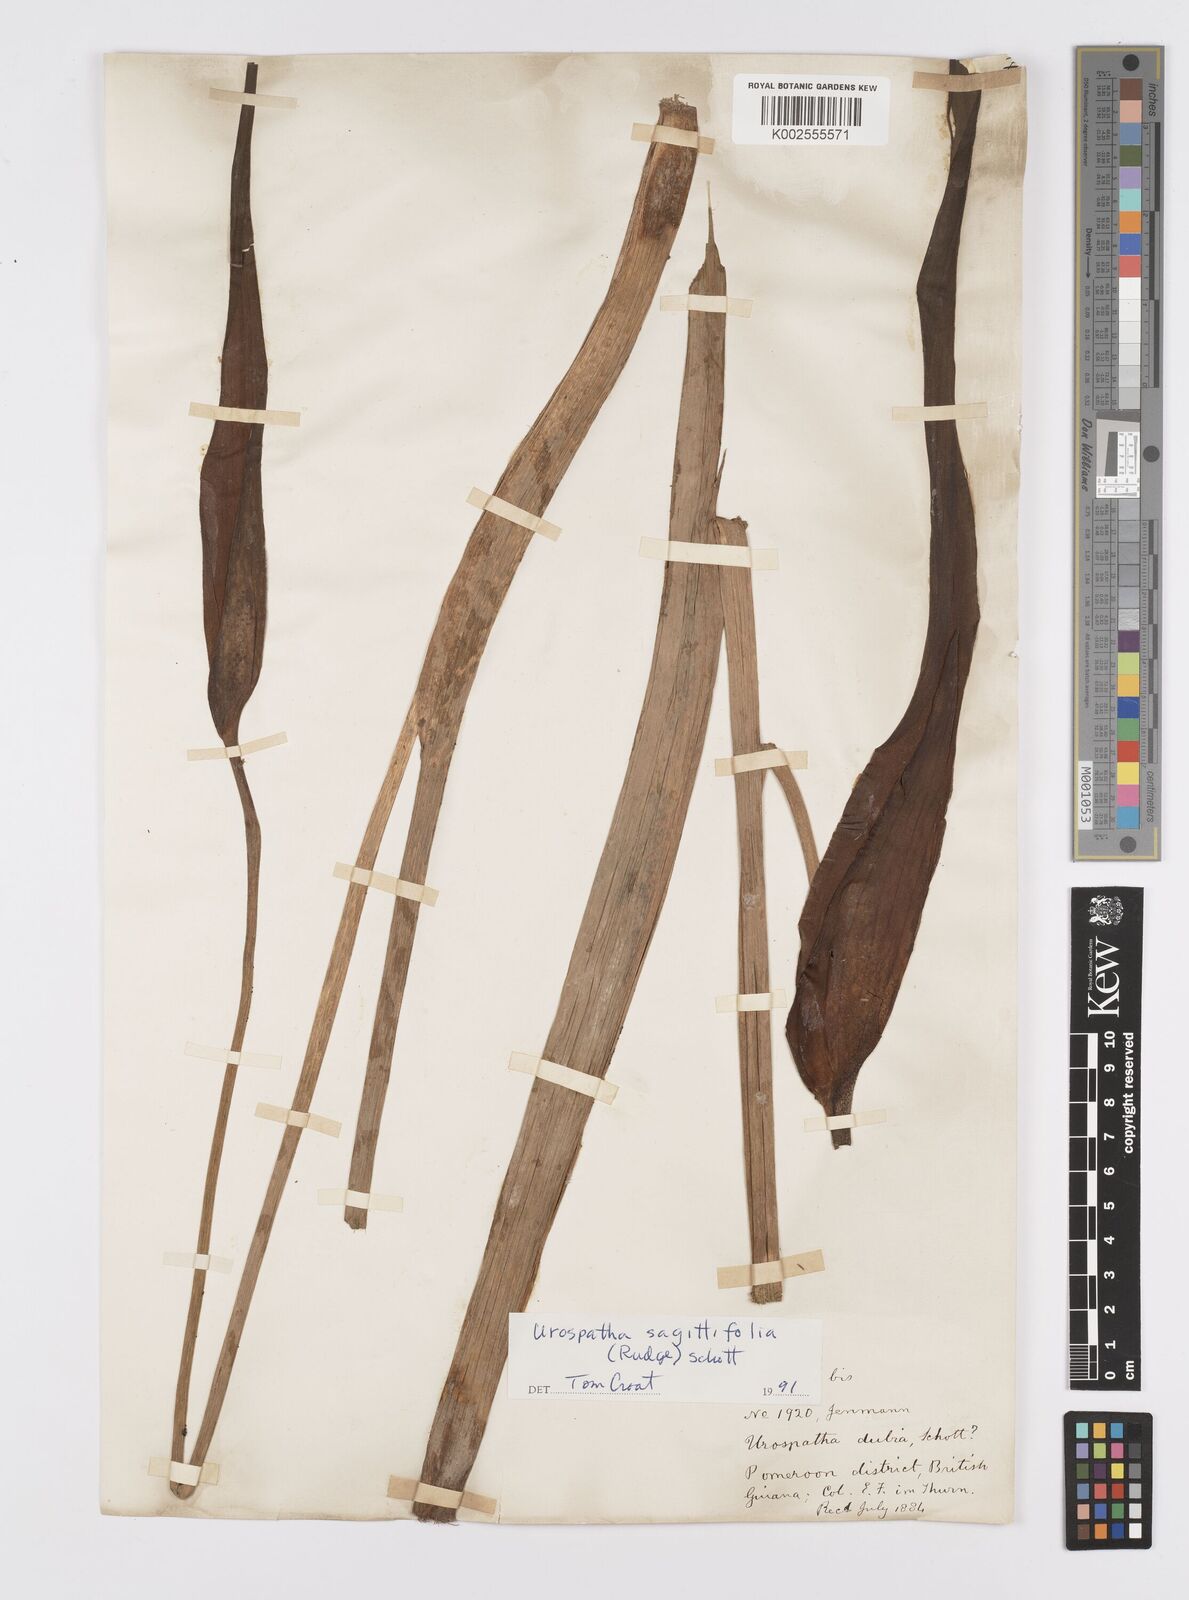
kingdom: Plantae
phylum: Tracheophyta
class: Liliopsida
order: Alismatales
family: Araceae
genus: Urospatha
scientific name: Urospatha sagittifolia
